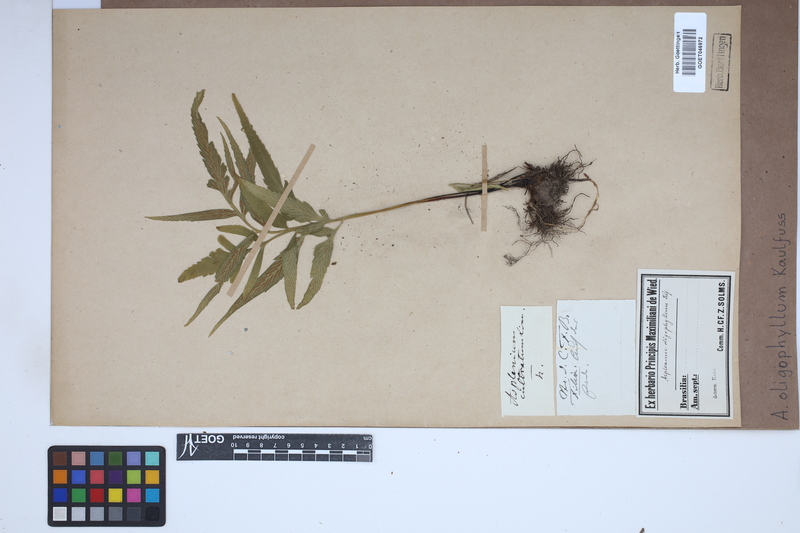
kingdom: Plantae
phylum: Tracheophyta
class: Polypodiopsida
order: Polypodiales
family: Aspleniaceae
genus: Asplenium
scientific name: Asplenium oligophyllum
